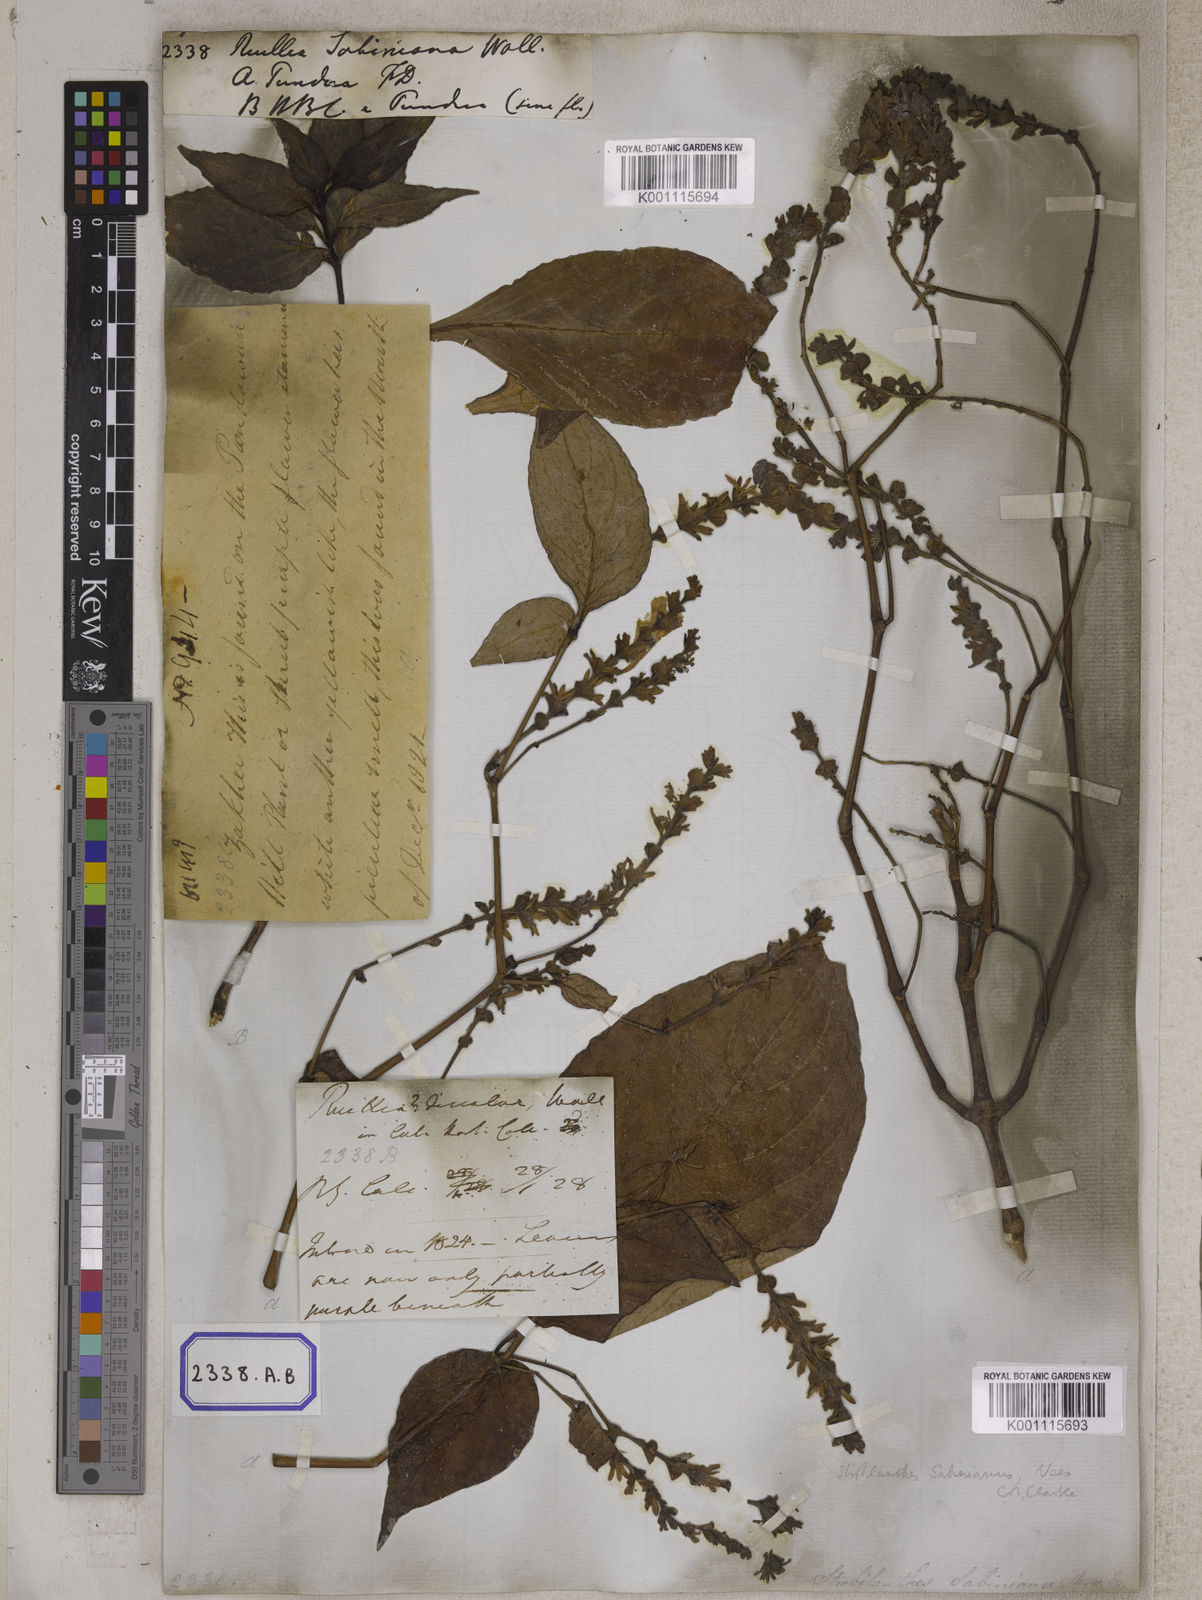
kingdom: Plantae
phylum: Tracheophyta
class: Magnoliopsida
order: Lamiales
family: Acanthaceae
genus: Ruellia
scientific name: Ruellia
